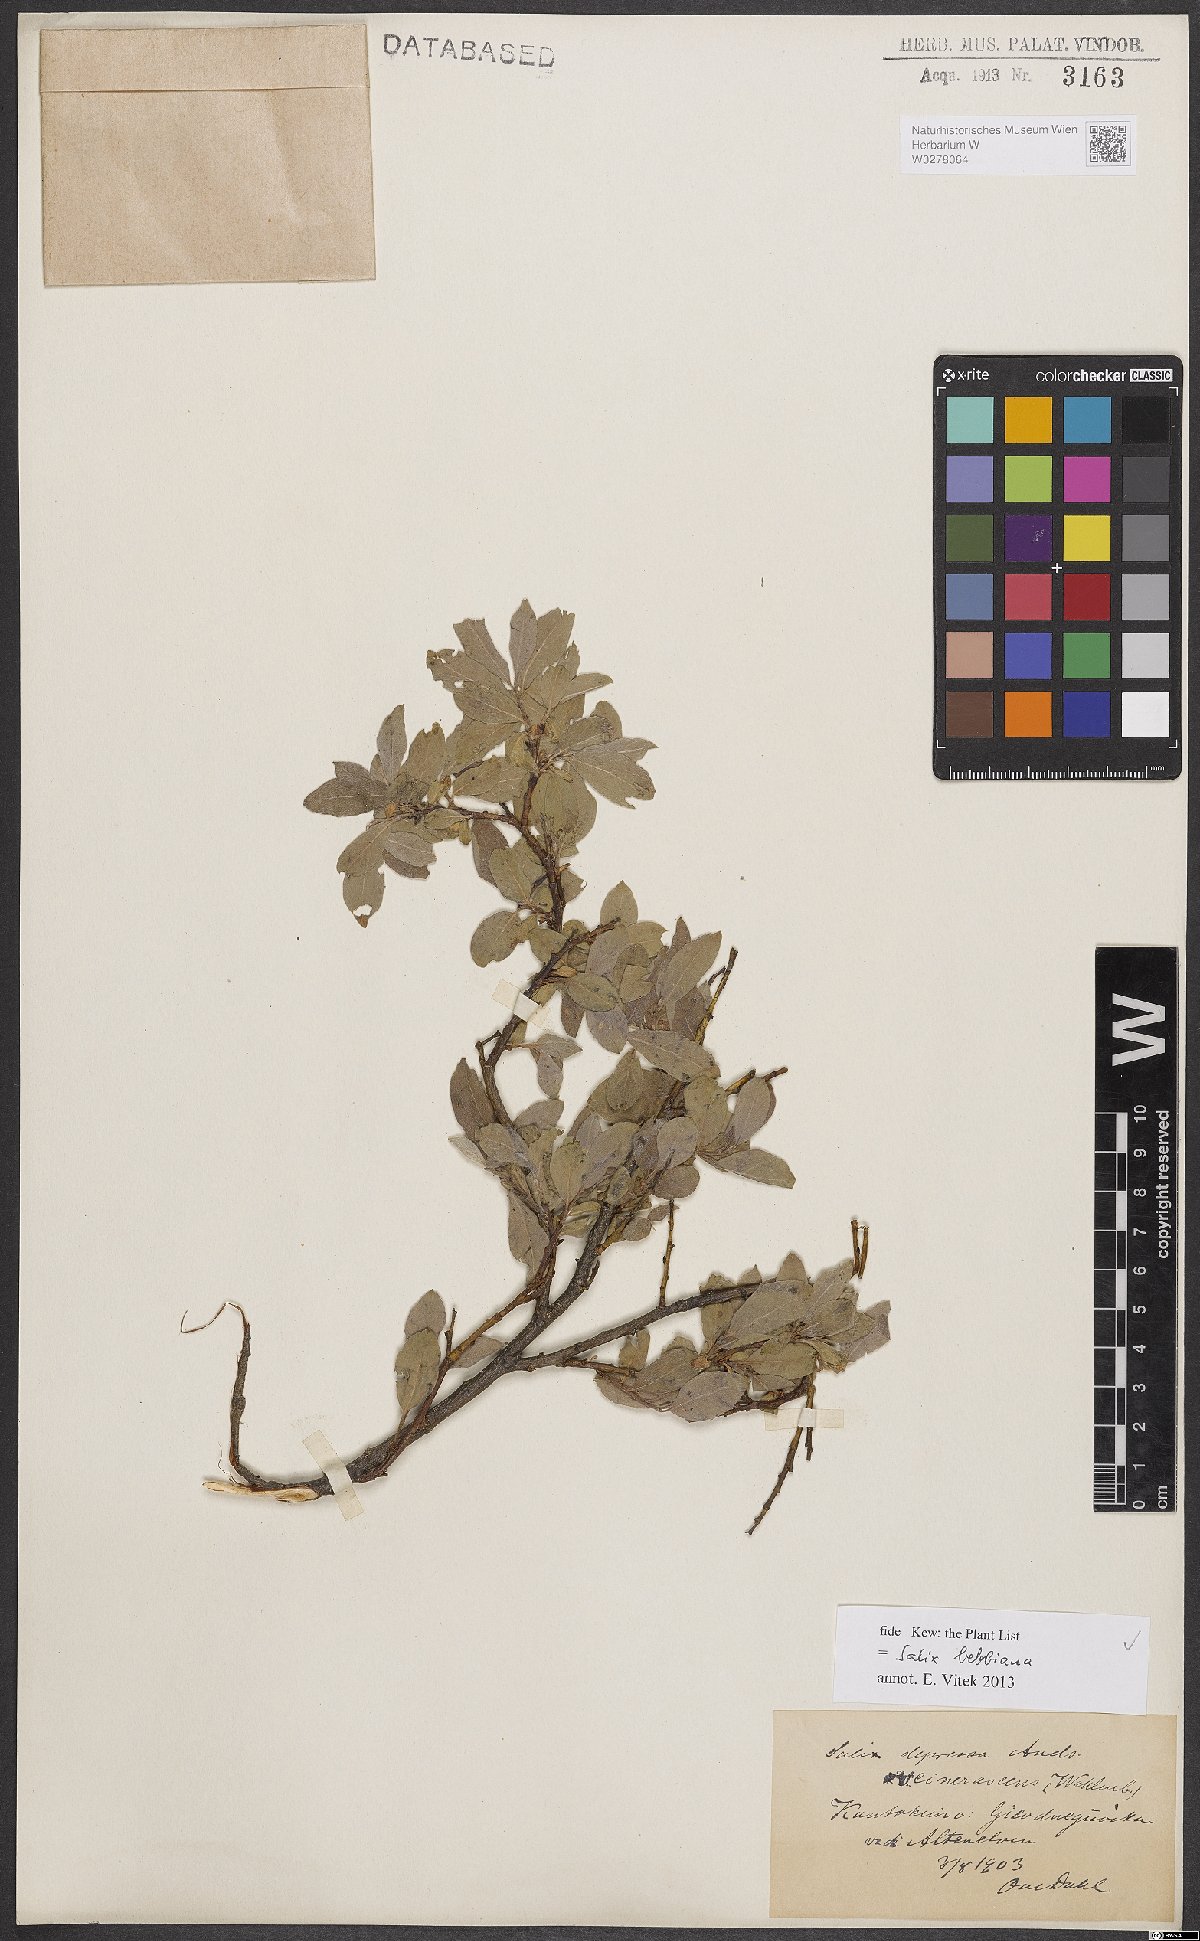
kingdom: Plantae
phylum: Tracheophyta
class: Magnoliopsida
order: Malpighiales
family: Salicaceae
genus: Salix
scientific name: Salix bebbiana
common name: Bebb's willow
